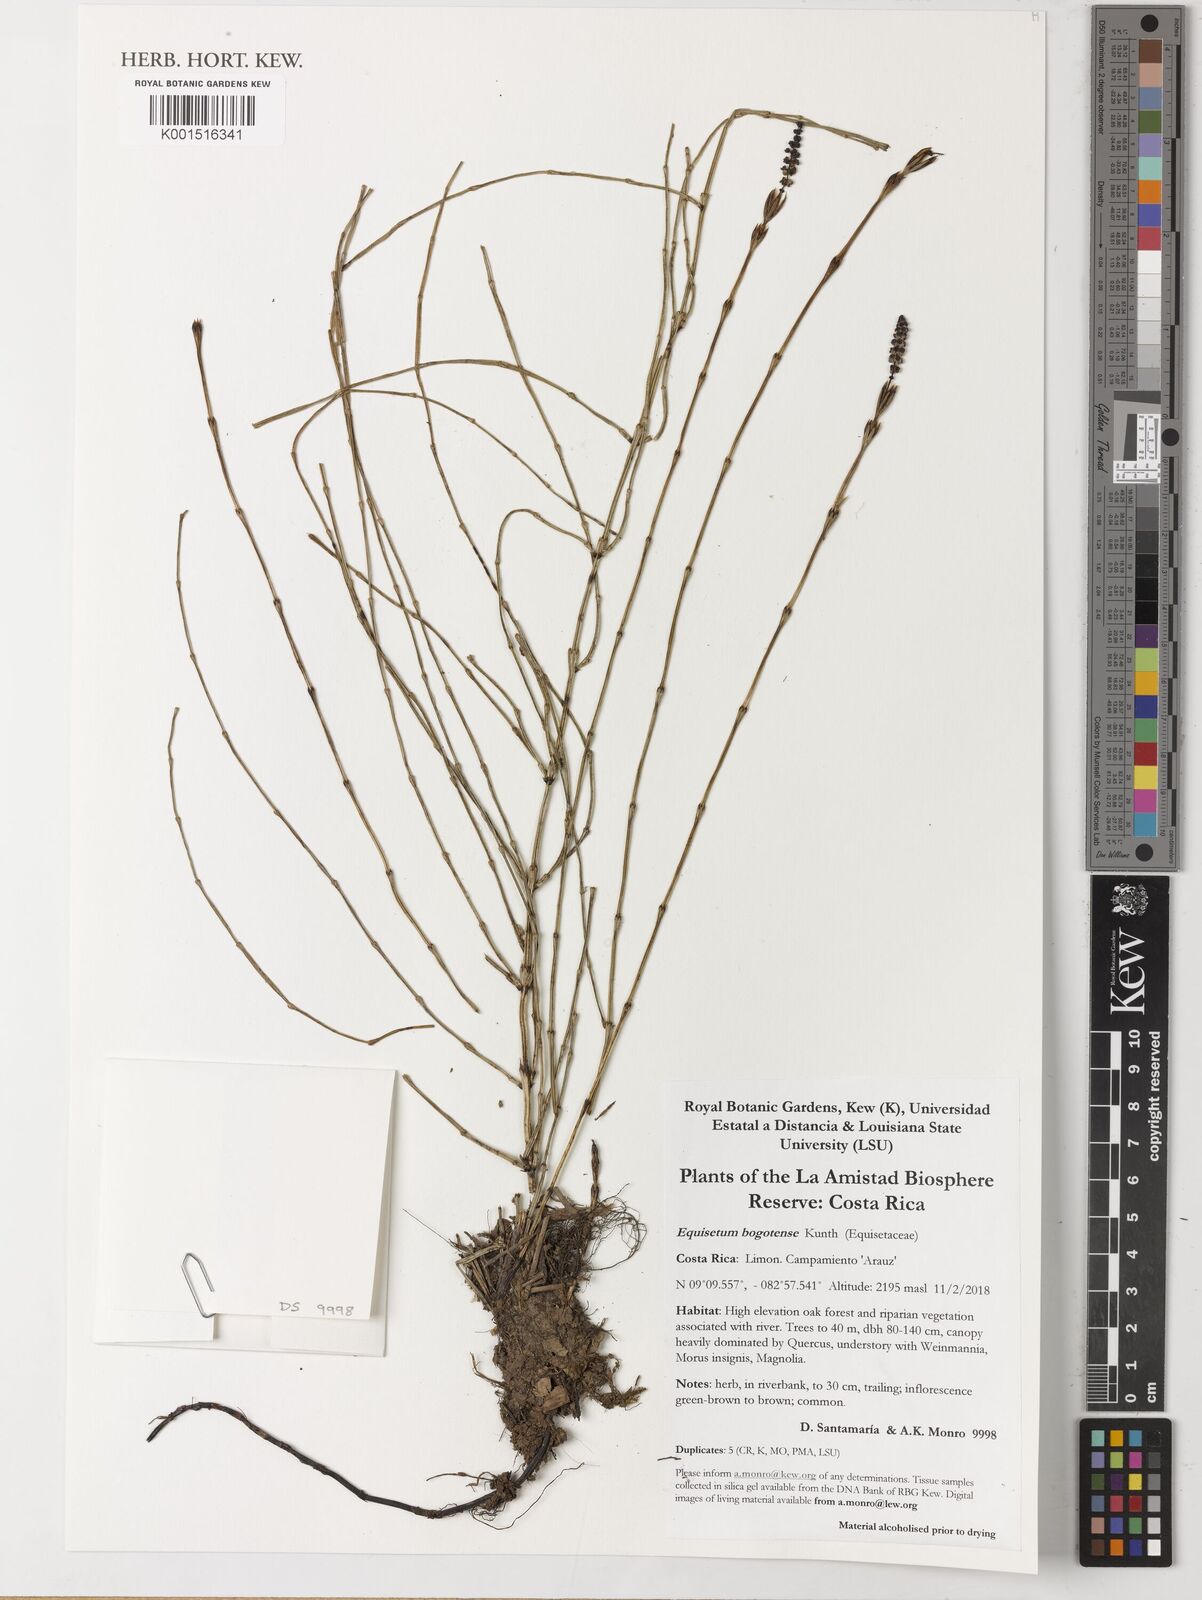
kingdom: Plantae
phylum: Tracheophyta
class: Polypodiopsida
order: Equisetales
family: Equisetaceae
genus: Equisetum
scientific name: Equisetum bogotense
